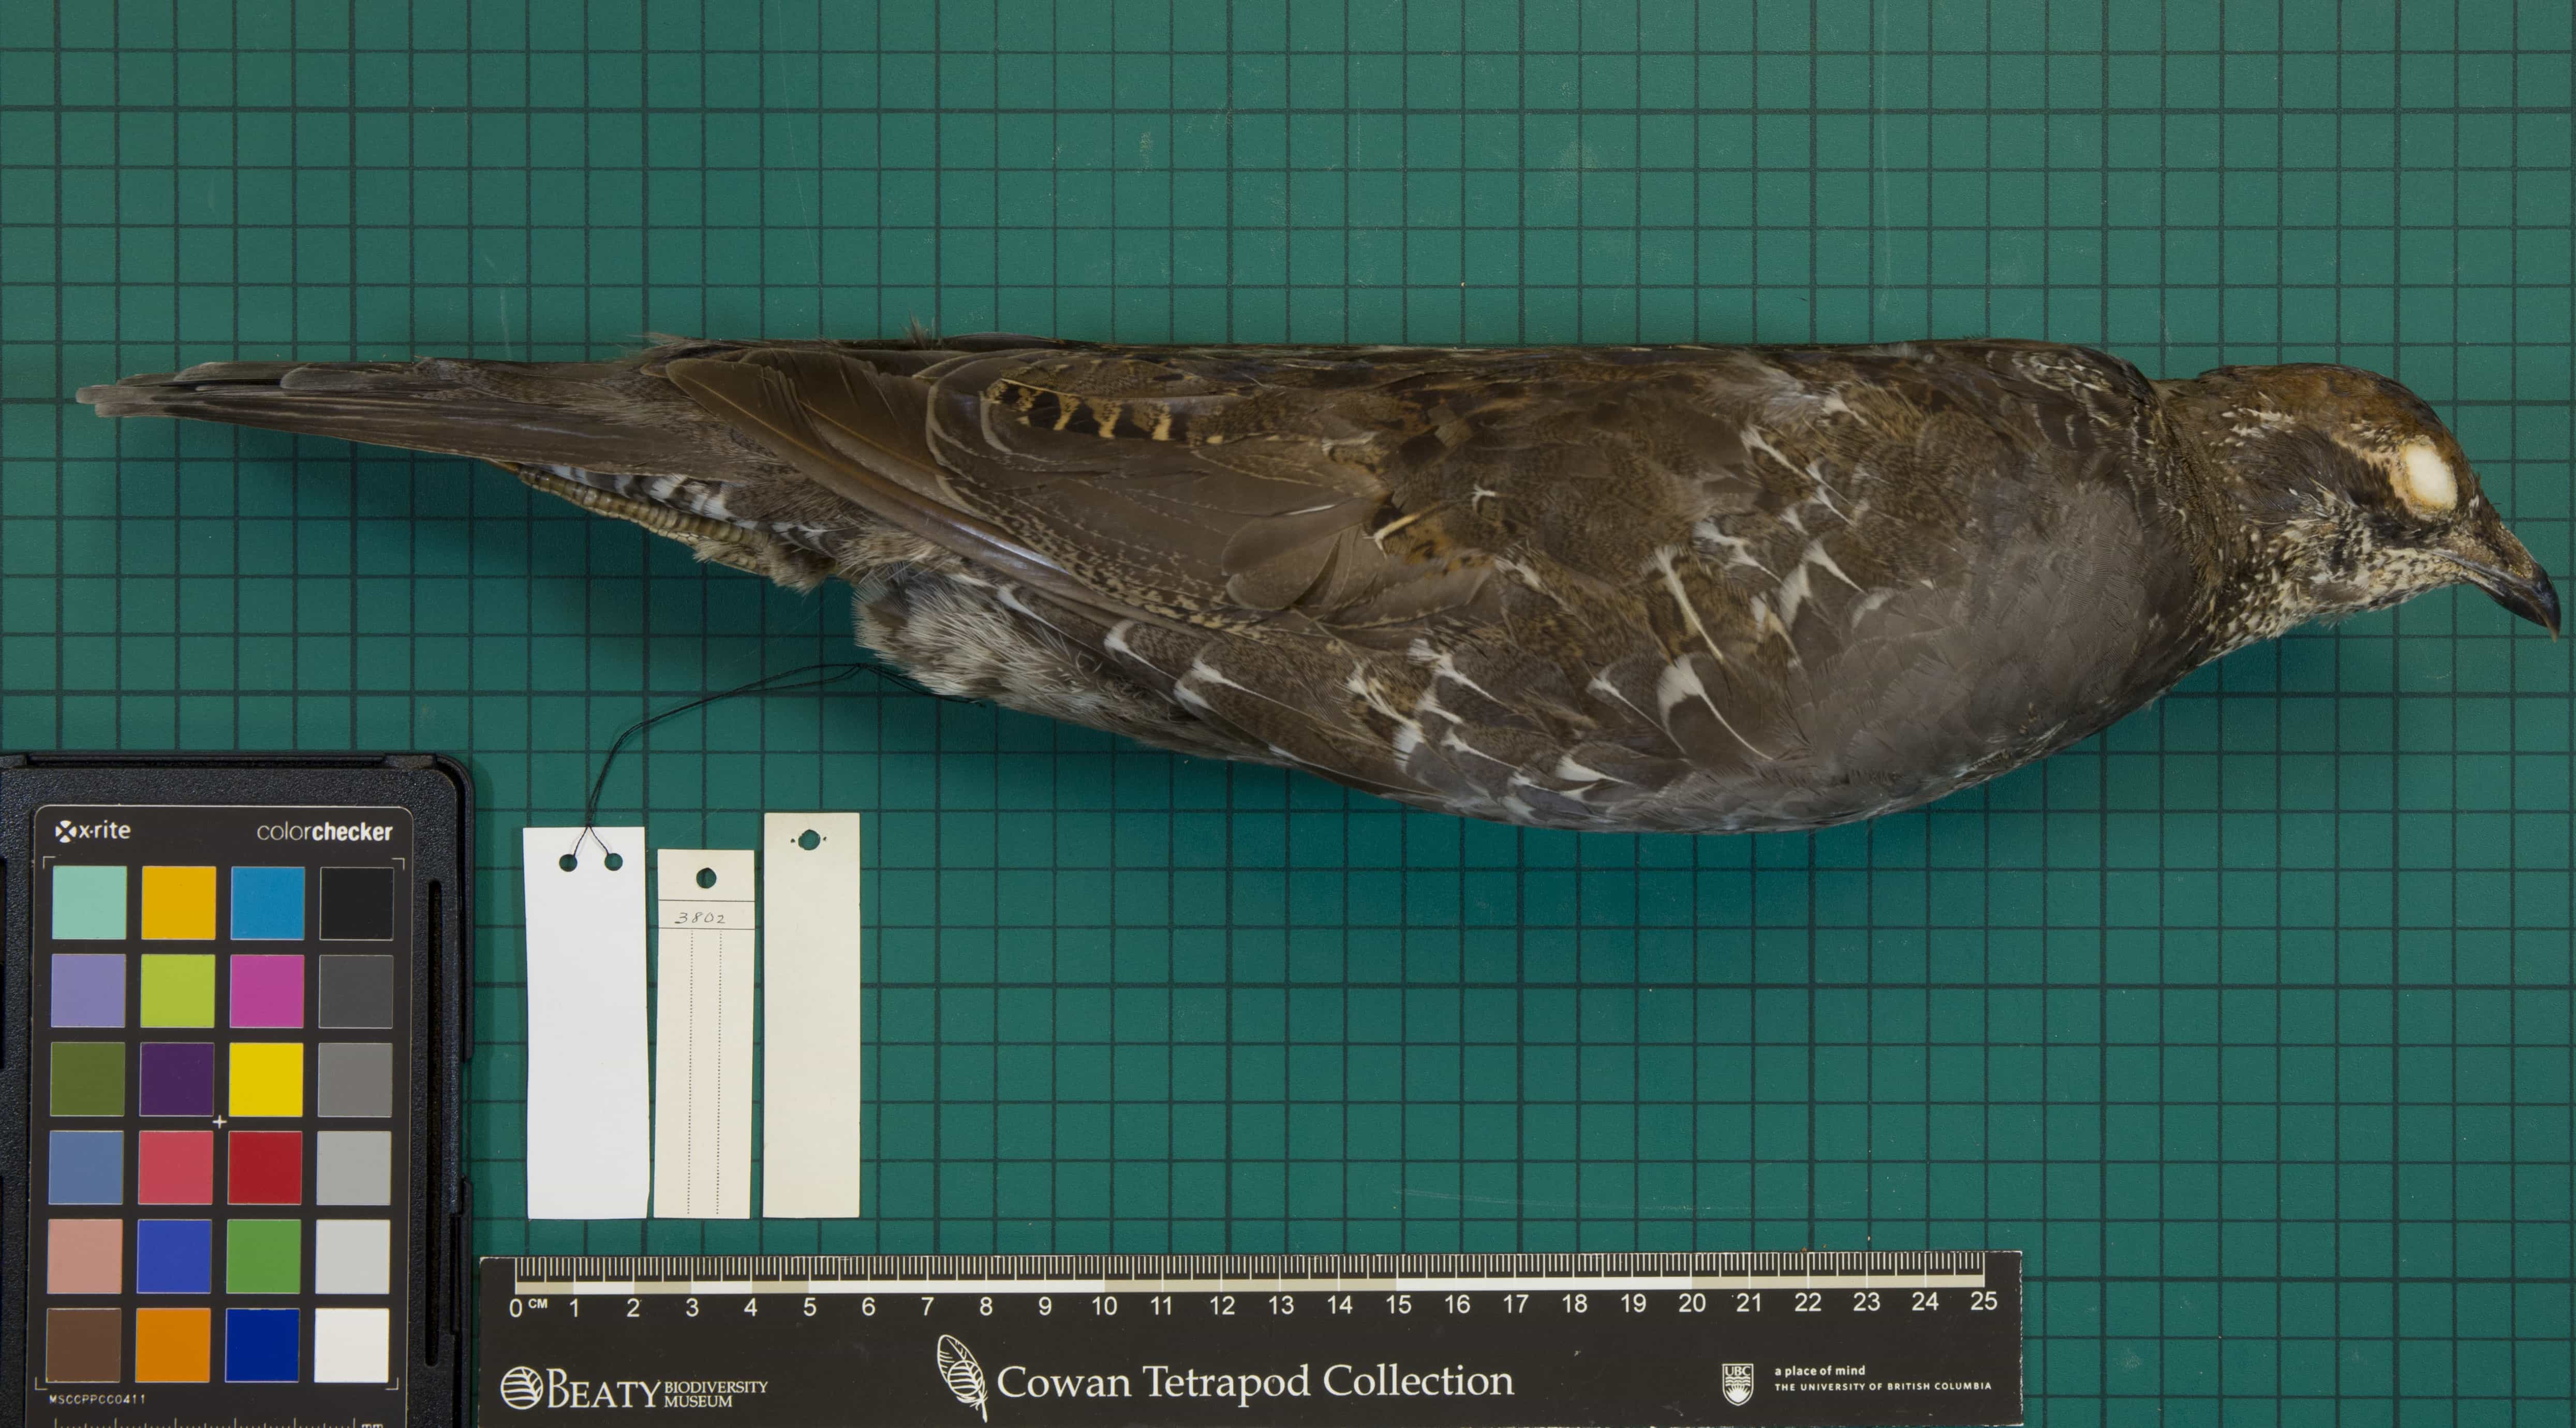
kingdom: Animalia
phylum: Chordata
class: Aves
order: Galliformes
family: Phasianidae
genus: Dendragapus
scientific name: Dendragapus fuliginosus
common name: Sooty Grouse
